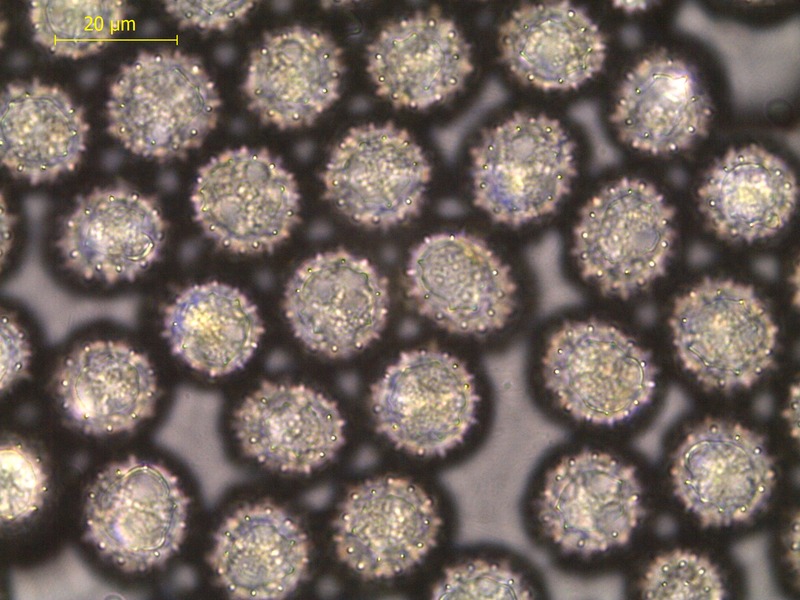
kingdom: Fungi
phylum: Basidiomycota
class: Pucciniomycetes
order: Pucciniales
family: Melampsoraceae
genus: Melampsora
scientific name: Melampsora epitea
